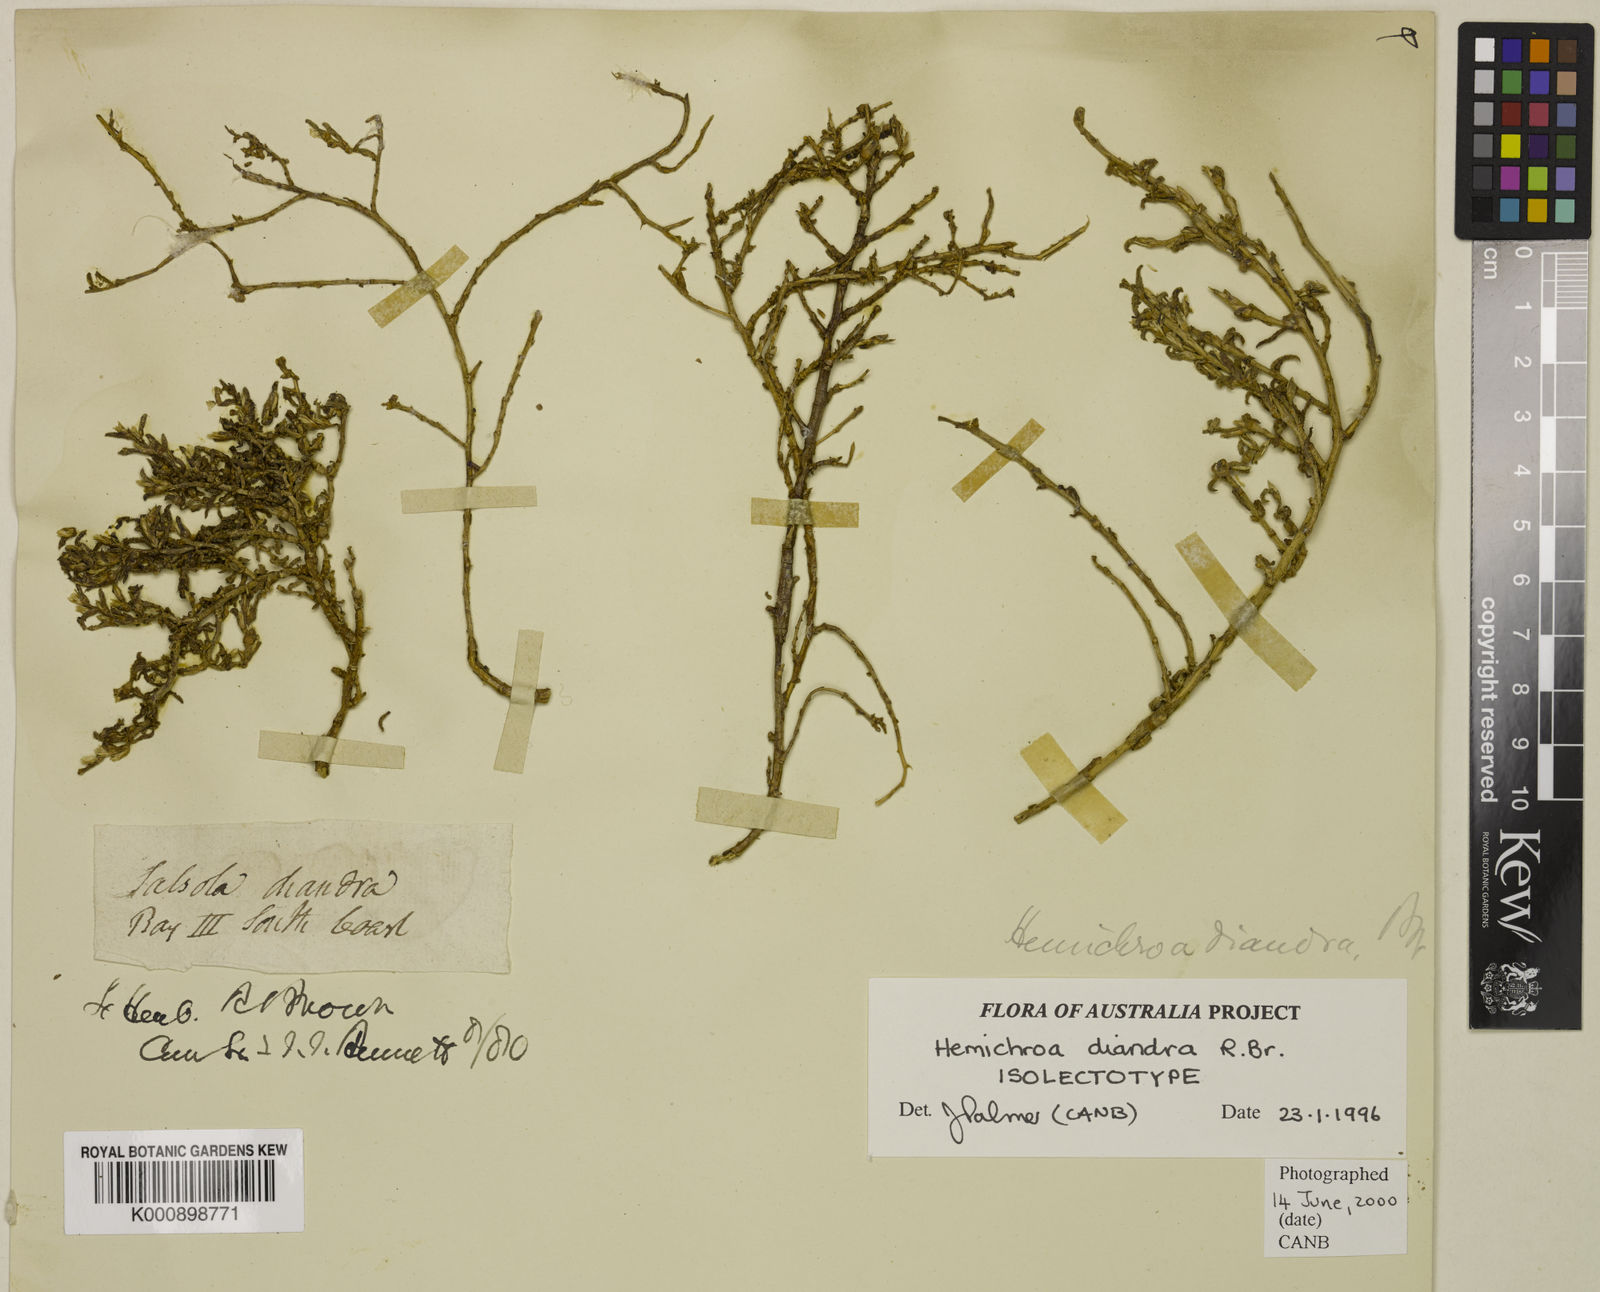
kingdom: Plantae
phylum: Tracheophyta
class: Magnoliopsida
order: Caryophyllales
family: Amaranthaceae
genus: Surreya
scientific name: Surreya diandra
